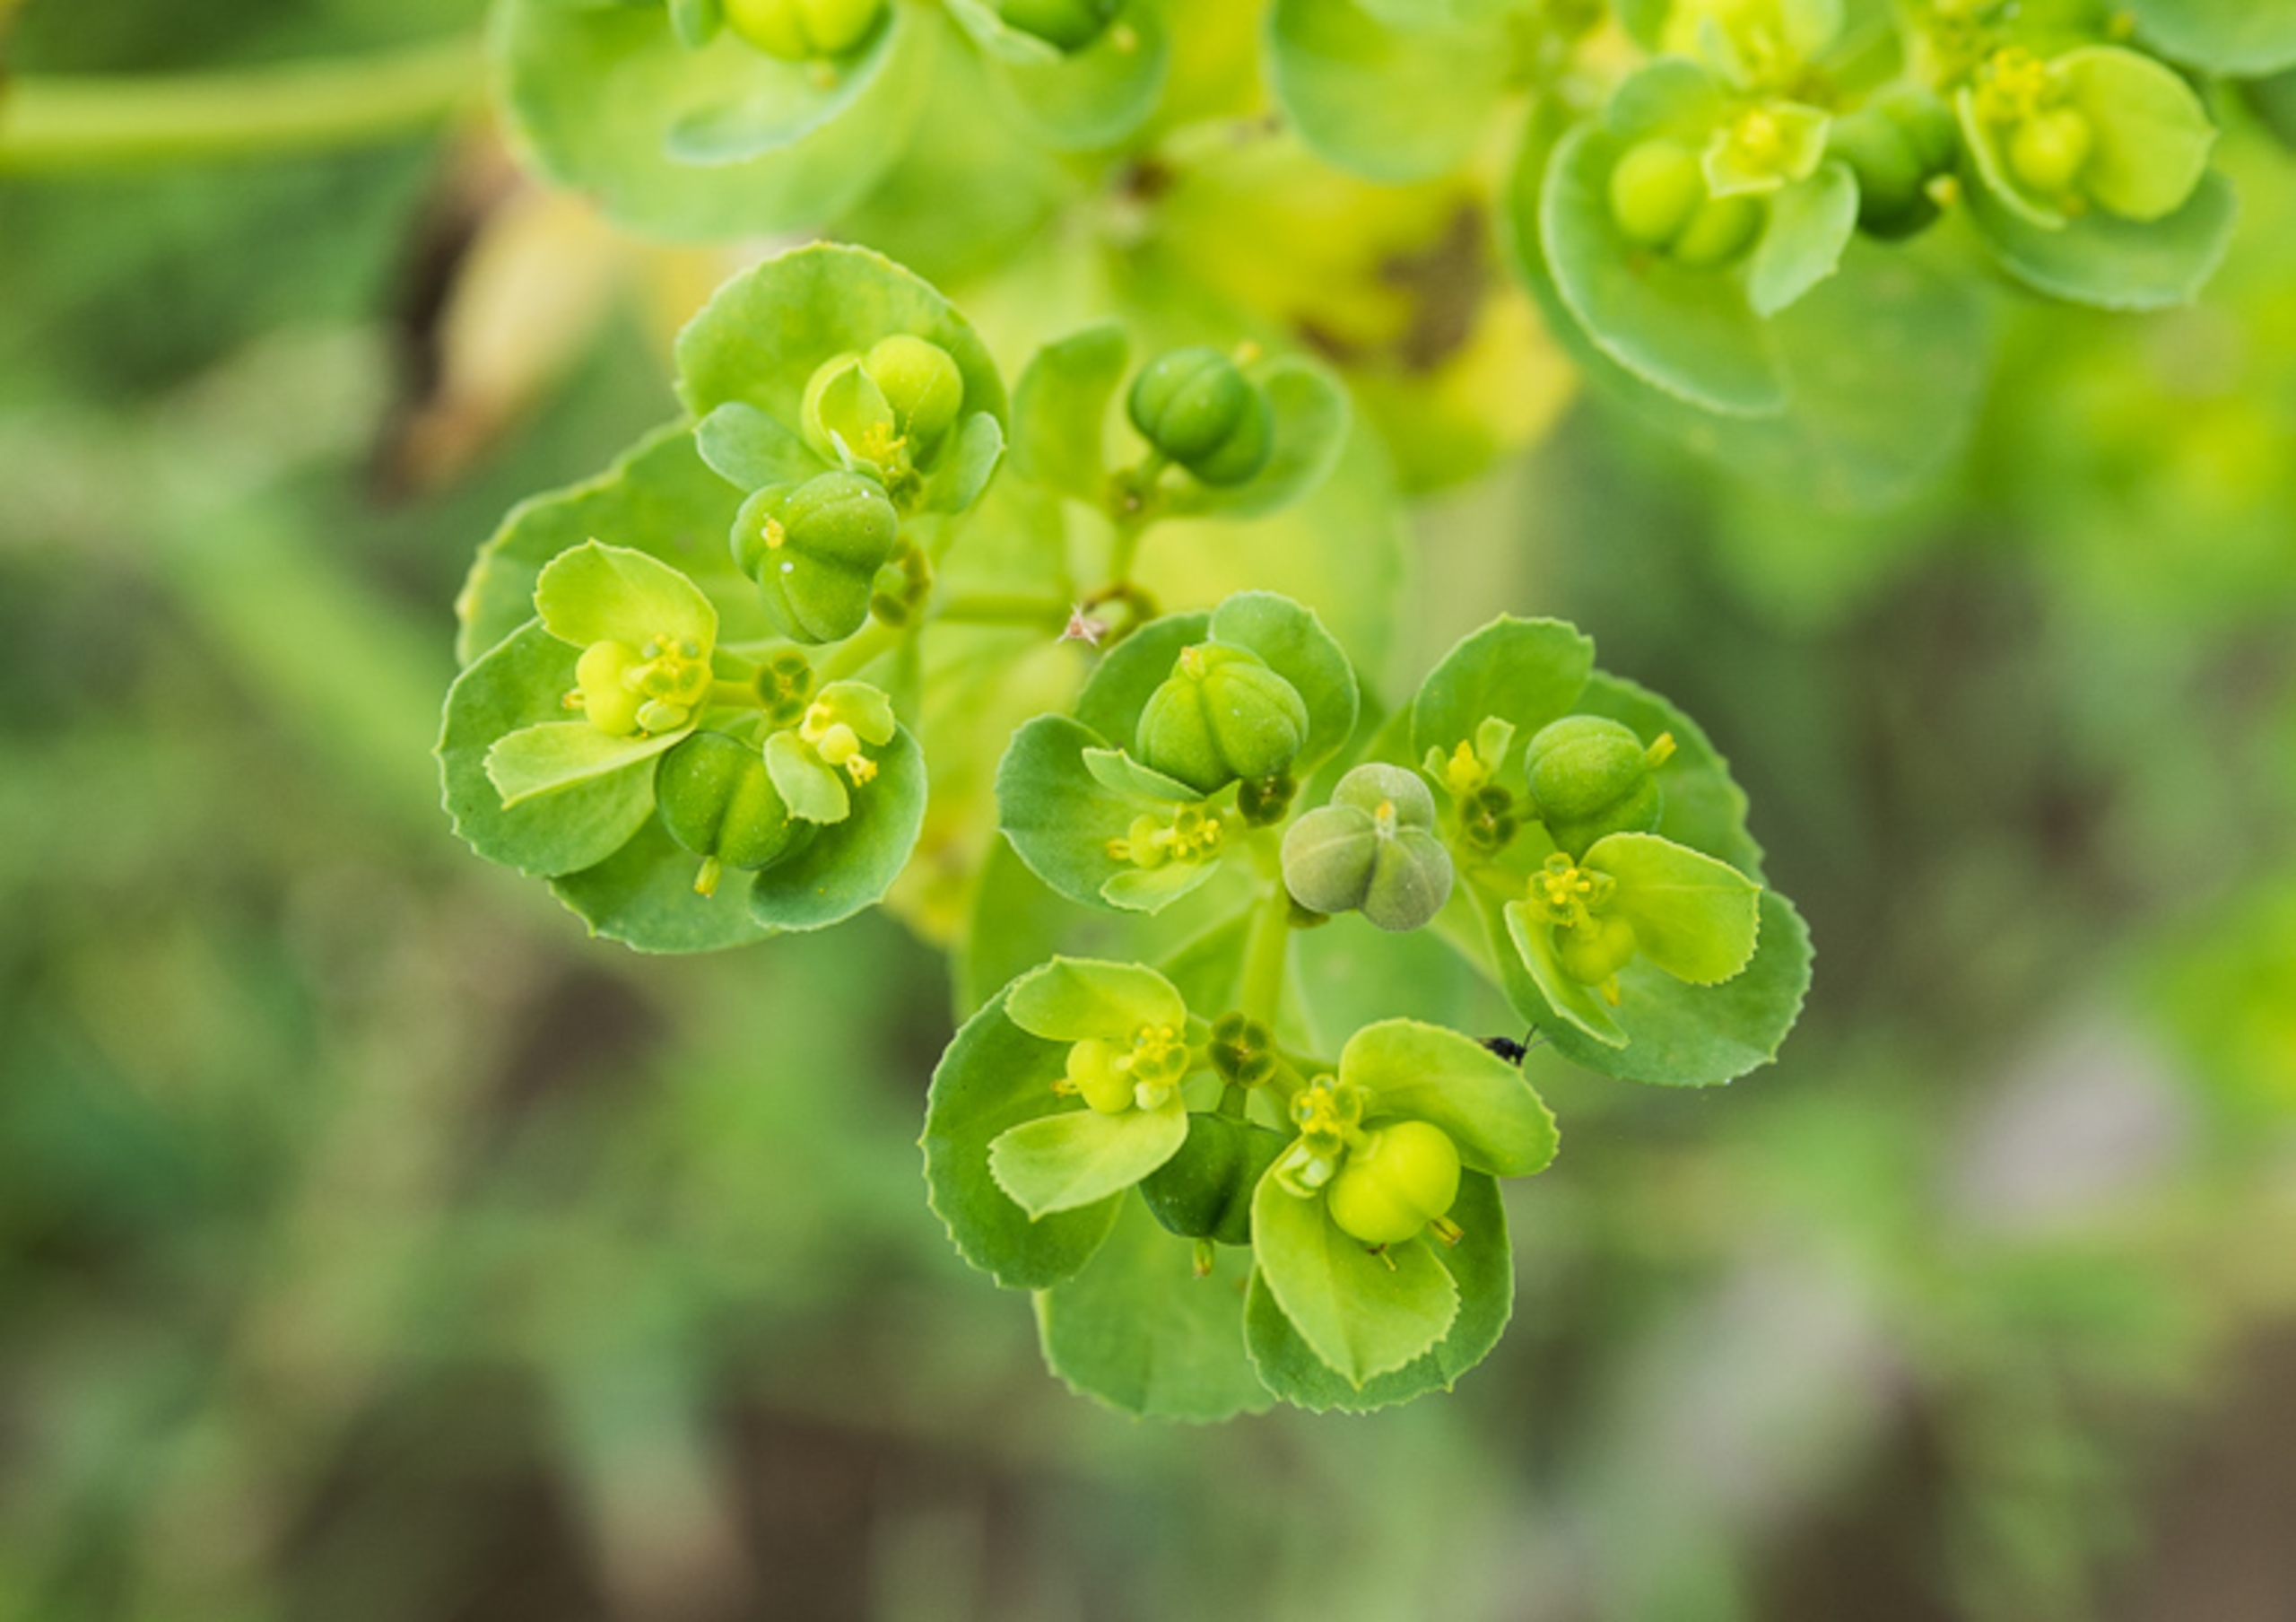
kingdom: Plantae
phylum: Tracheophyta
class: Magnoliopsida
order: Malpighiales
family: Euphorbiaceae
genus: Euphorbia
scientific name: Euphorbia helioscopia
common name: Skærm-vortemælk
